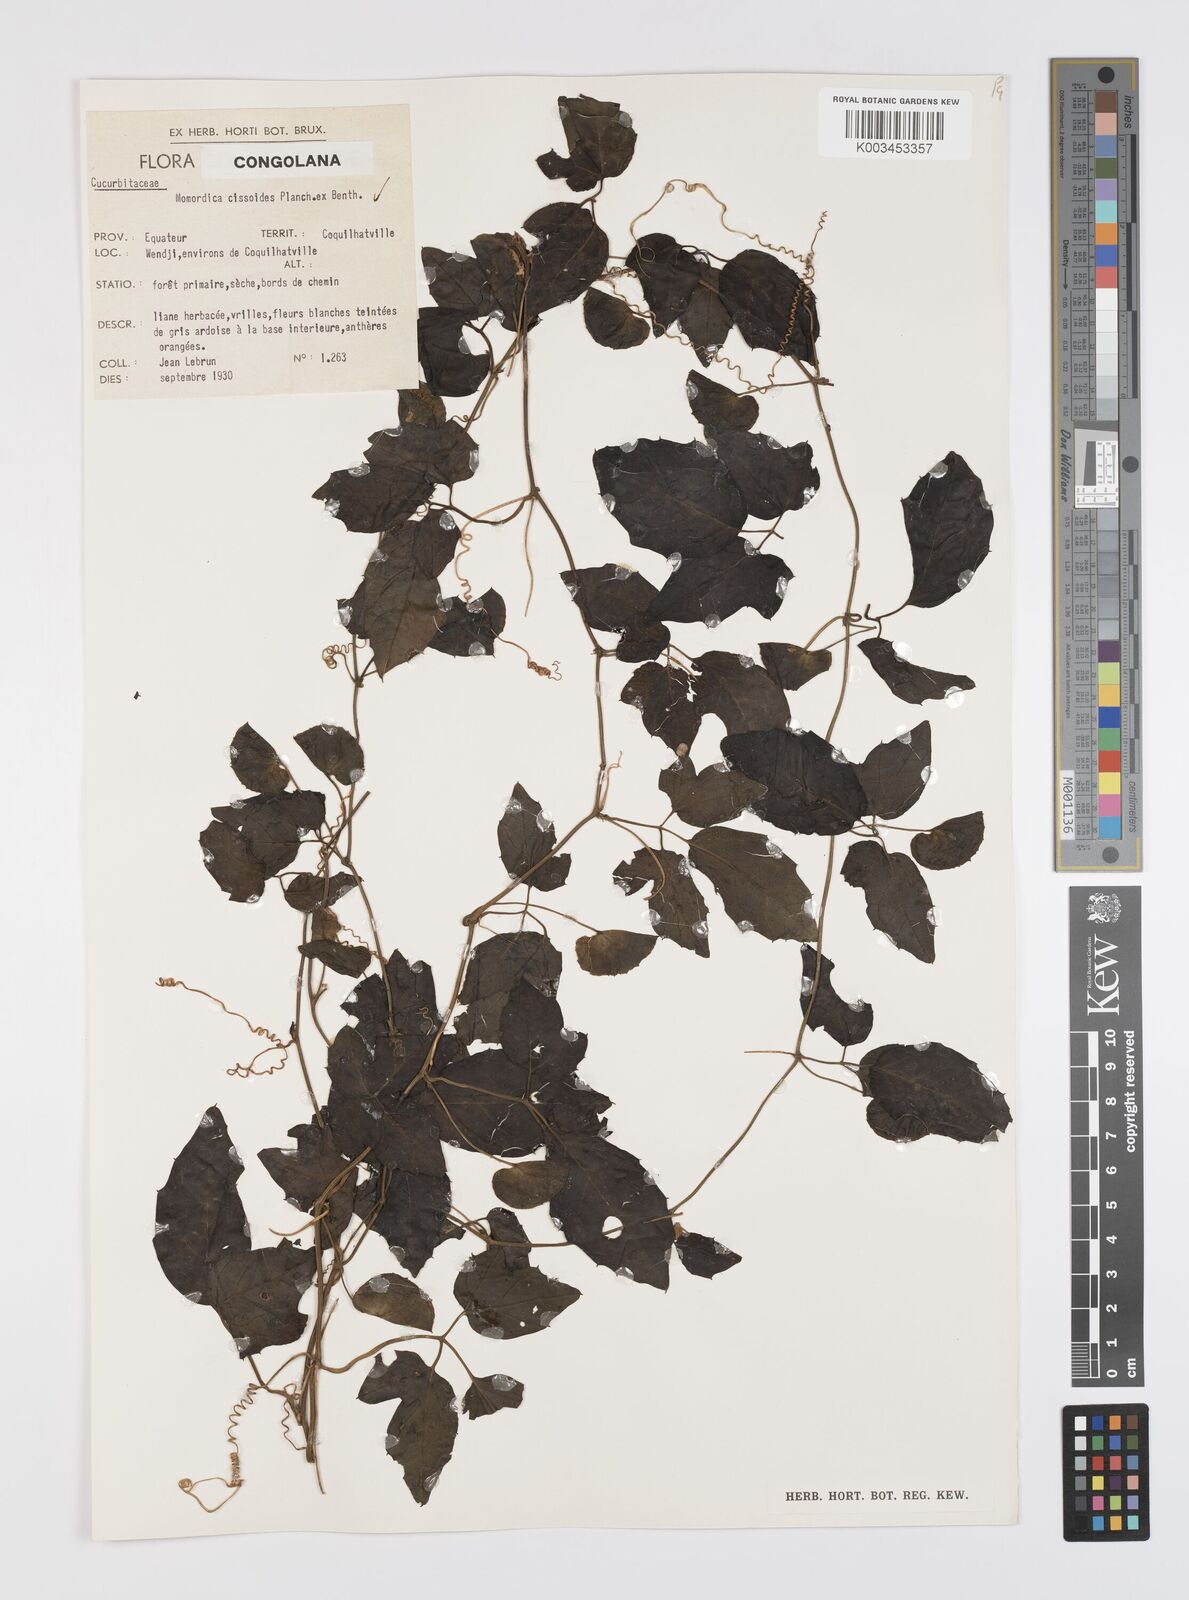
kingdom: Plantae
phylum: Tracheophyta
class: Magnoliopsida
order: Cucurbitales
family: Cucurbitaceae
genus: Momordica
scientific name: Momordica cissoides
